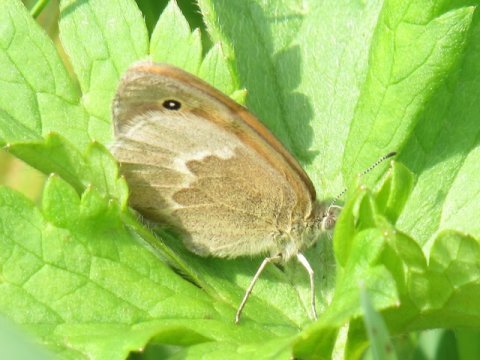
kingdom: Animalia
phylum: Arthropoda
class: Insecta
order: Lepidoptera
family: Nymphalidae
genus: Coenonympha
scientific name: Coenonympha tullia
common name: Large Heath
